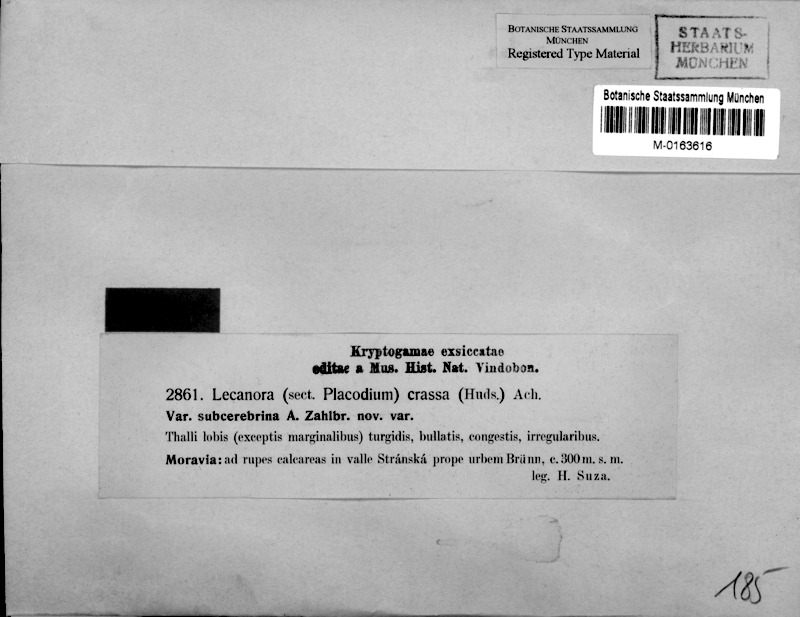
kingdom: Fungi
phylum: Ascomycota
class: Lecanoromycetes
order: Lecanorales
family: Stereocaulaceae
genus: Squamarina
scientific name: Squamarina cartilaginea
